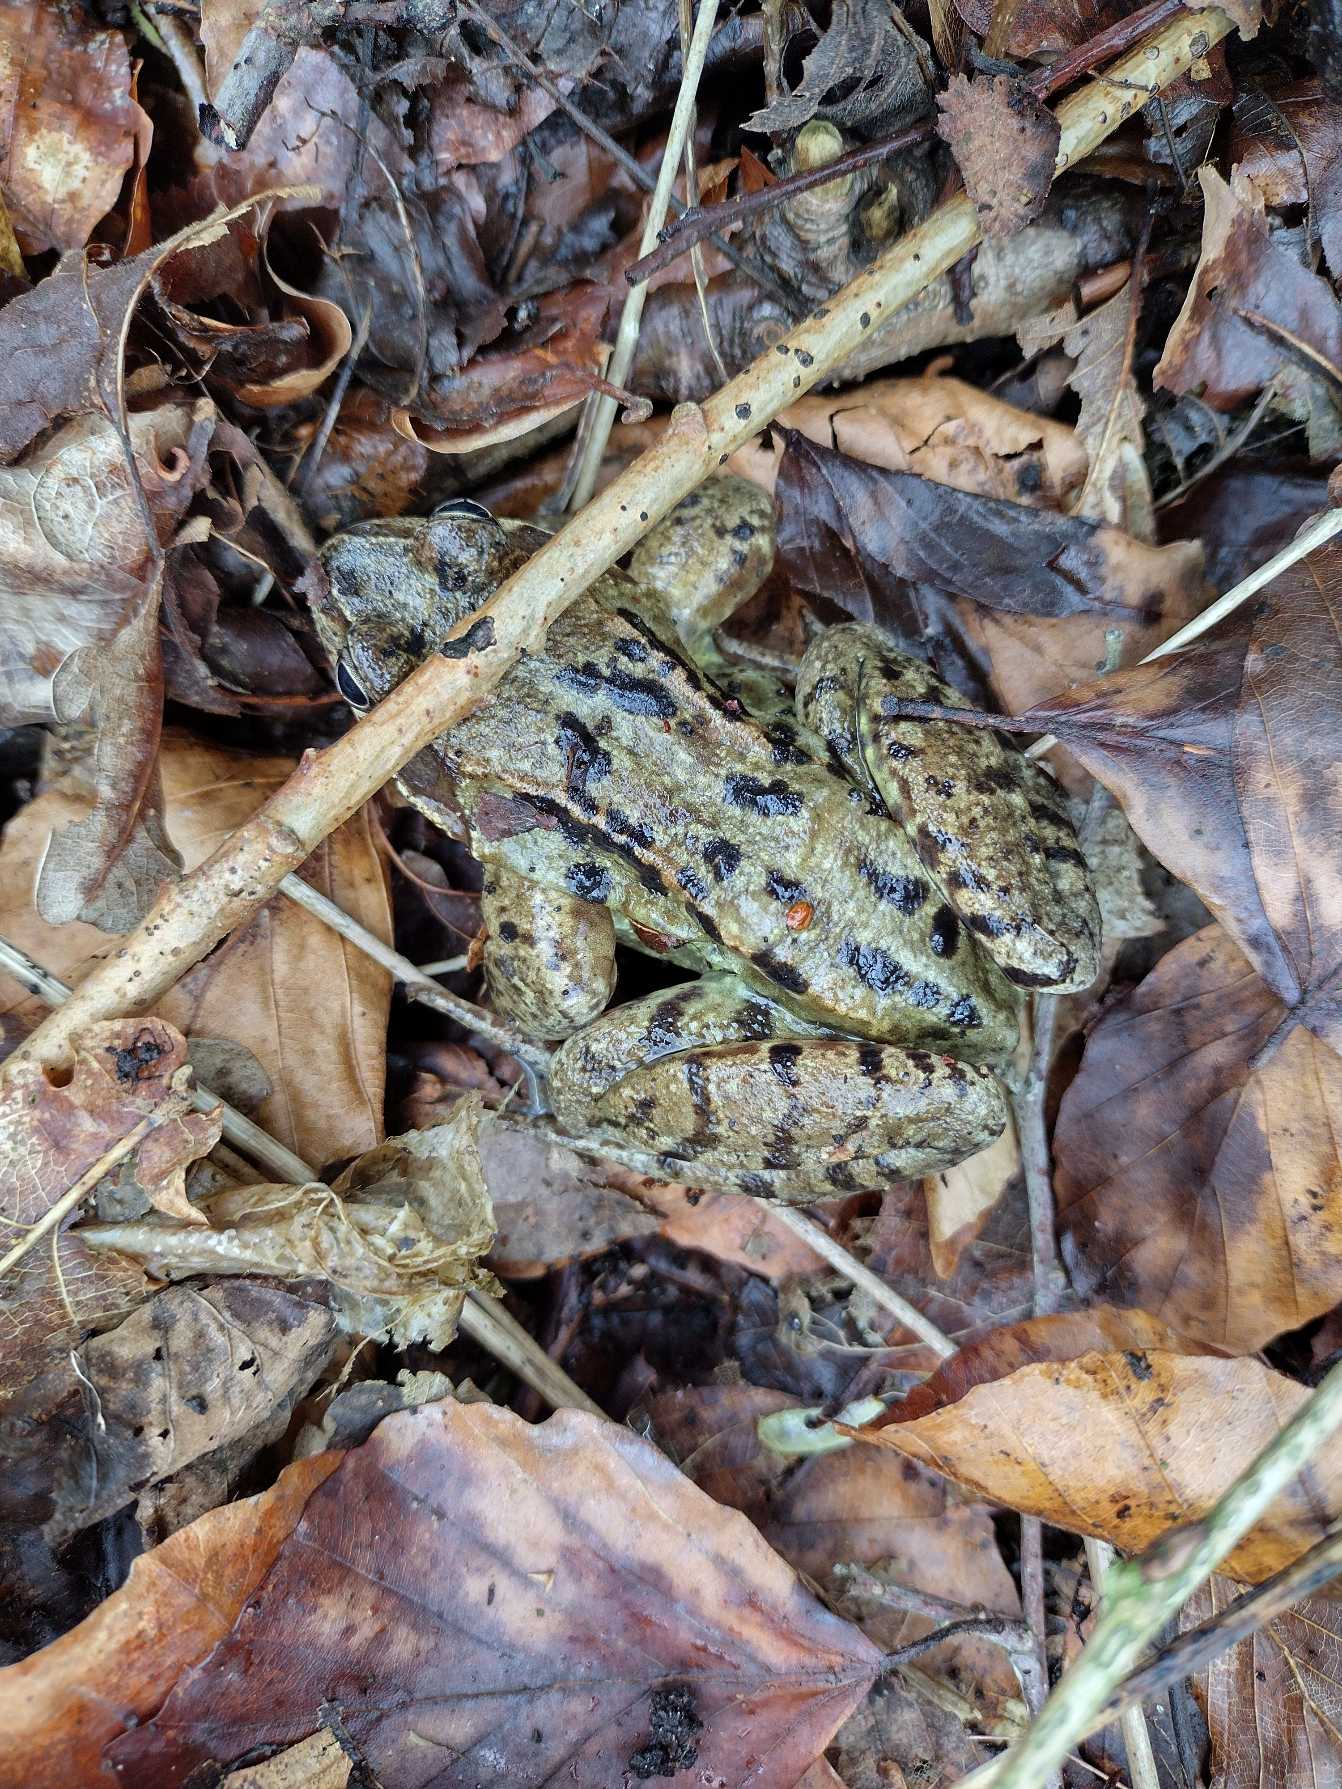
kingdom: Animalia
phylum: Chordata
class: Amphibia
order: Anura
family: Ranidae
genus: Rana
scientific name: Rana temporaria
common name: Butsnudet frø
